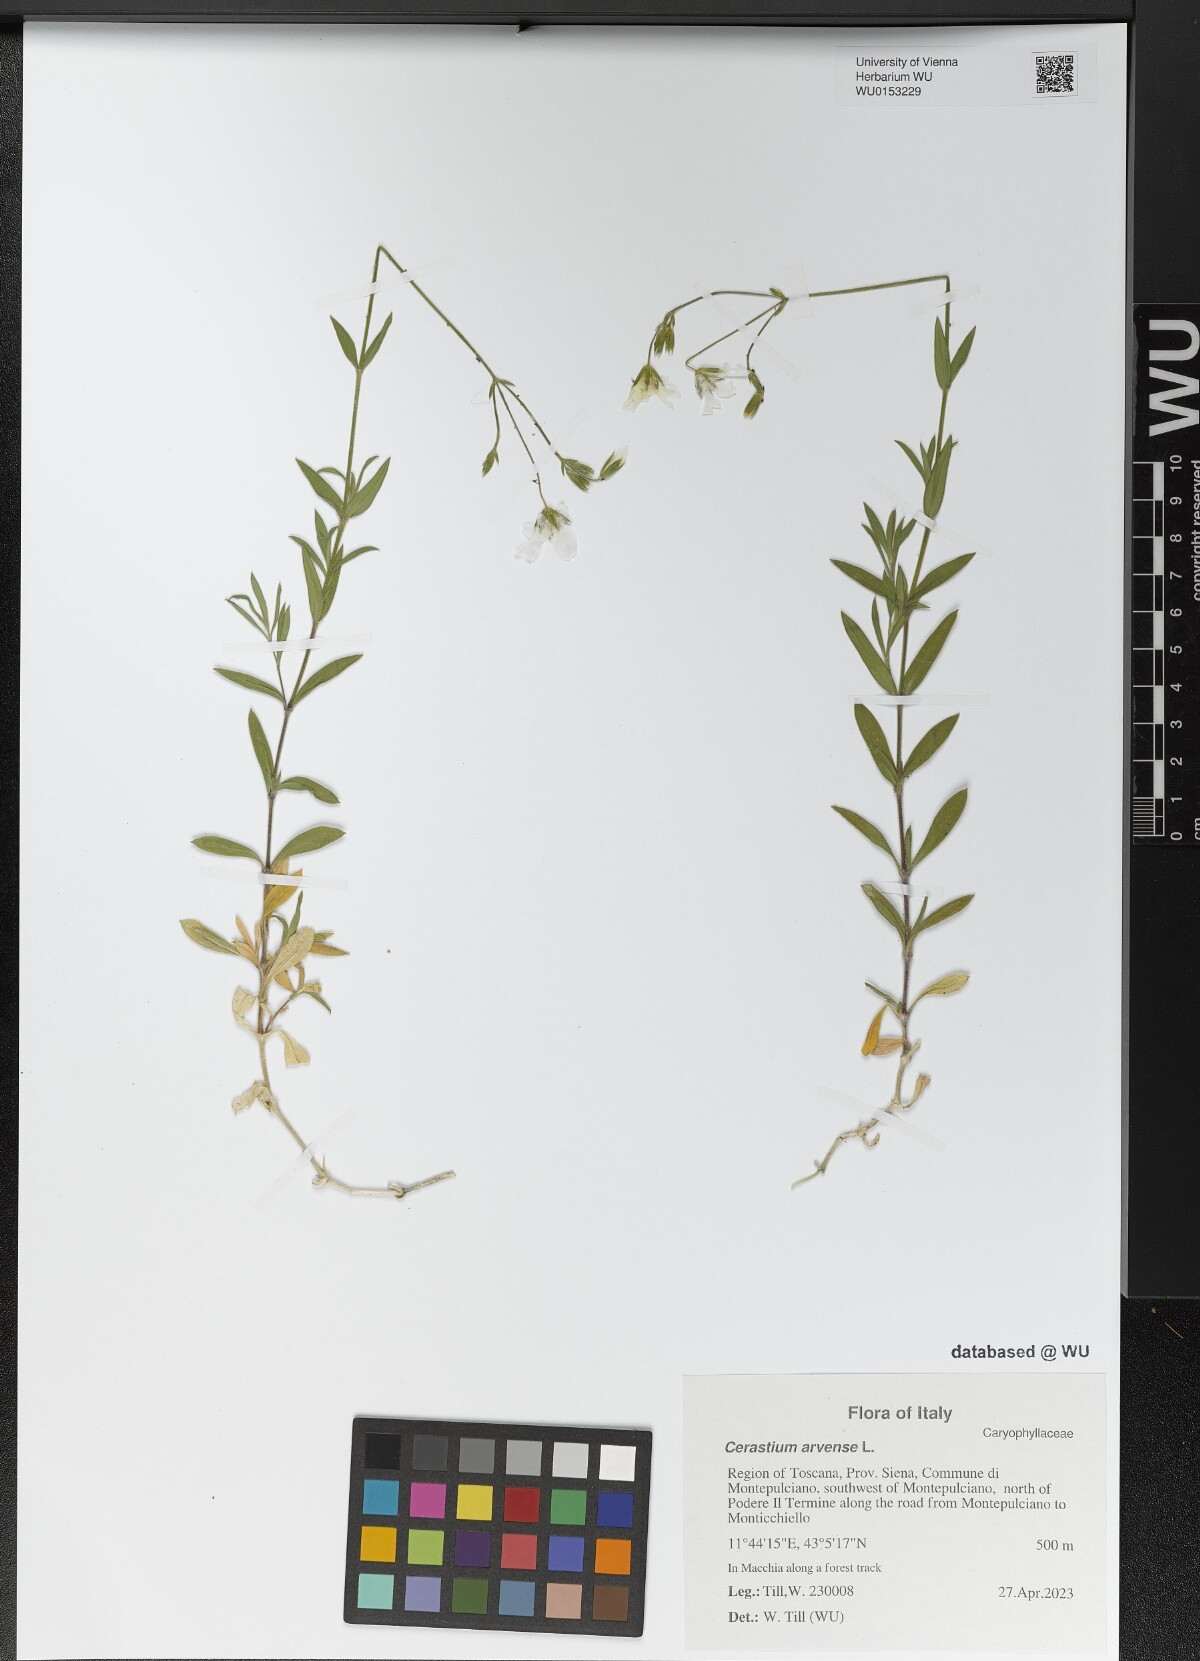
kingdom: Plantae
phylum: Tracheophyta
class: Magnoliopsida
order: Caryophyllales
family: Caryophyllaceae
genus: Cerastium
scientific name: Cerastium arvense
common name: Field mouse-ear
